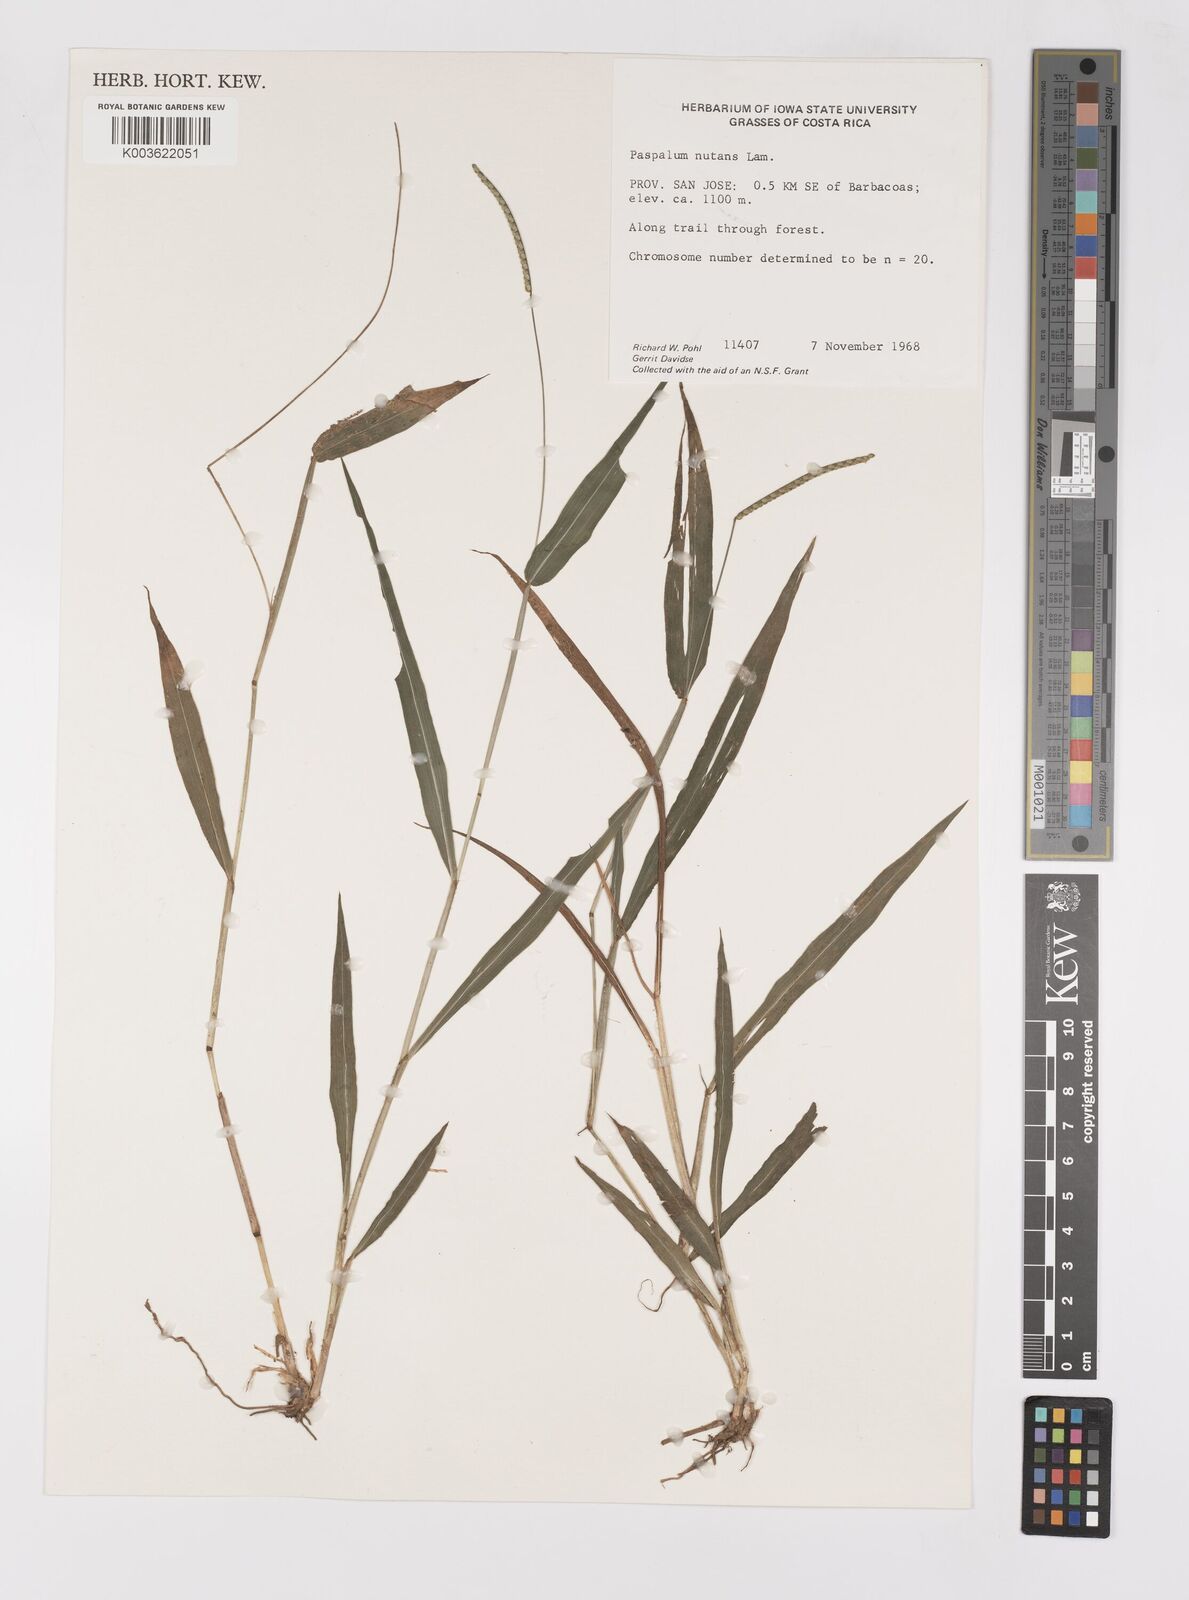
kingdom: Plantae
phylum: Tracheophyta
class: Liliopsida
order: Poales
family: Poaceae
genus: Paspalum
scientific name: Paspalum nutans
